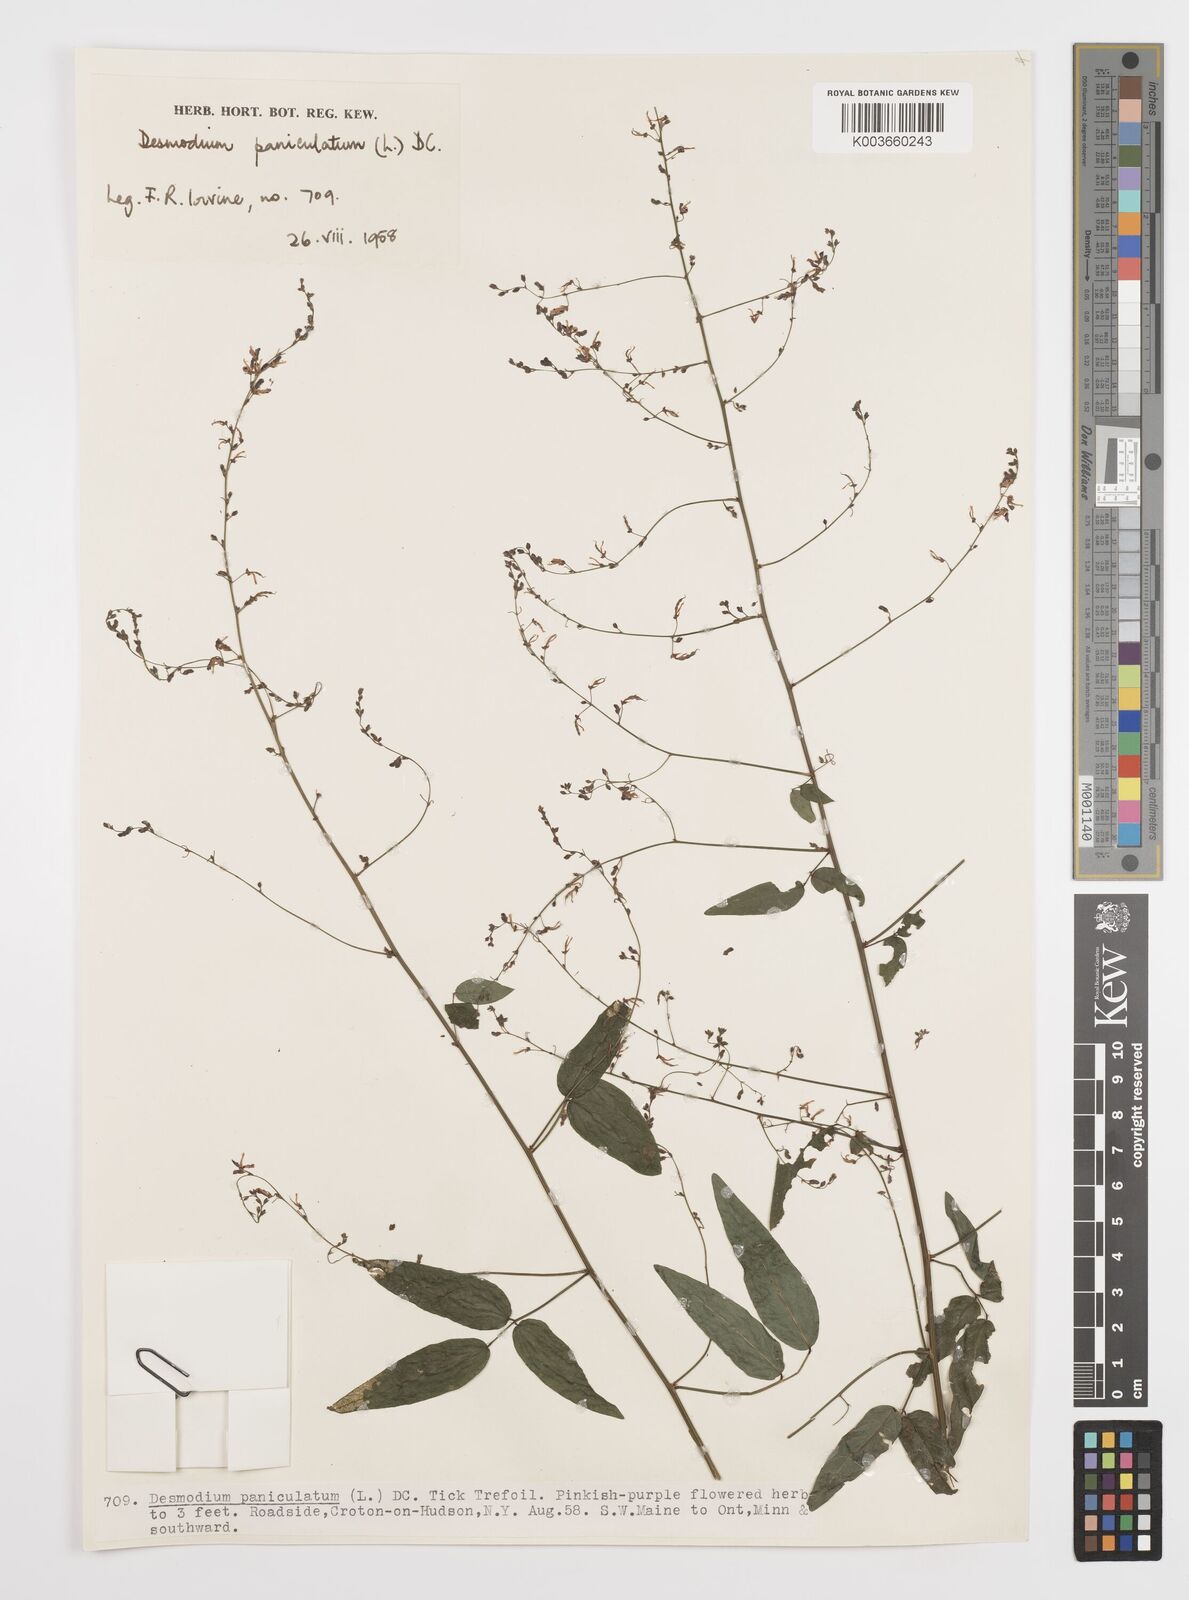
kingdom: Plantae
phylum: Tracheophyta
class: Magnoliopsida
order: Fabales
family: Fabaceae
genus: Desmodium
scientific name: Desmodium paniculatum
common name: Panicled tick-clover
